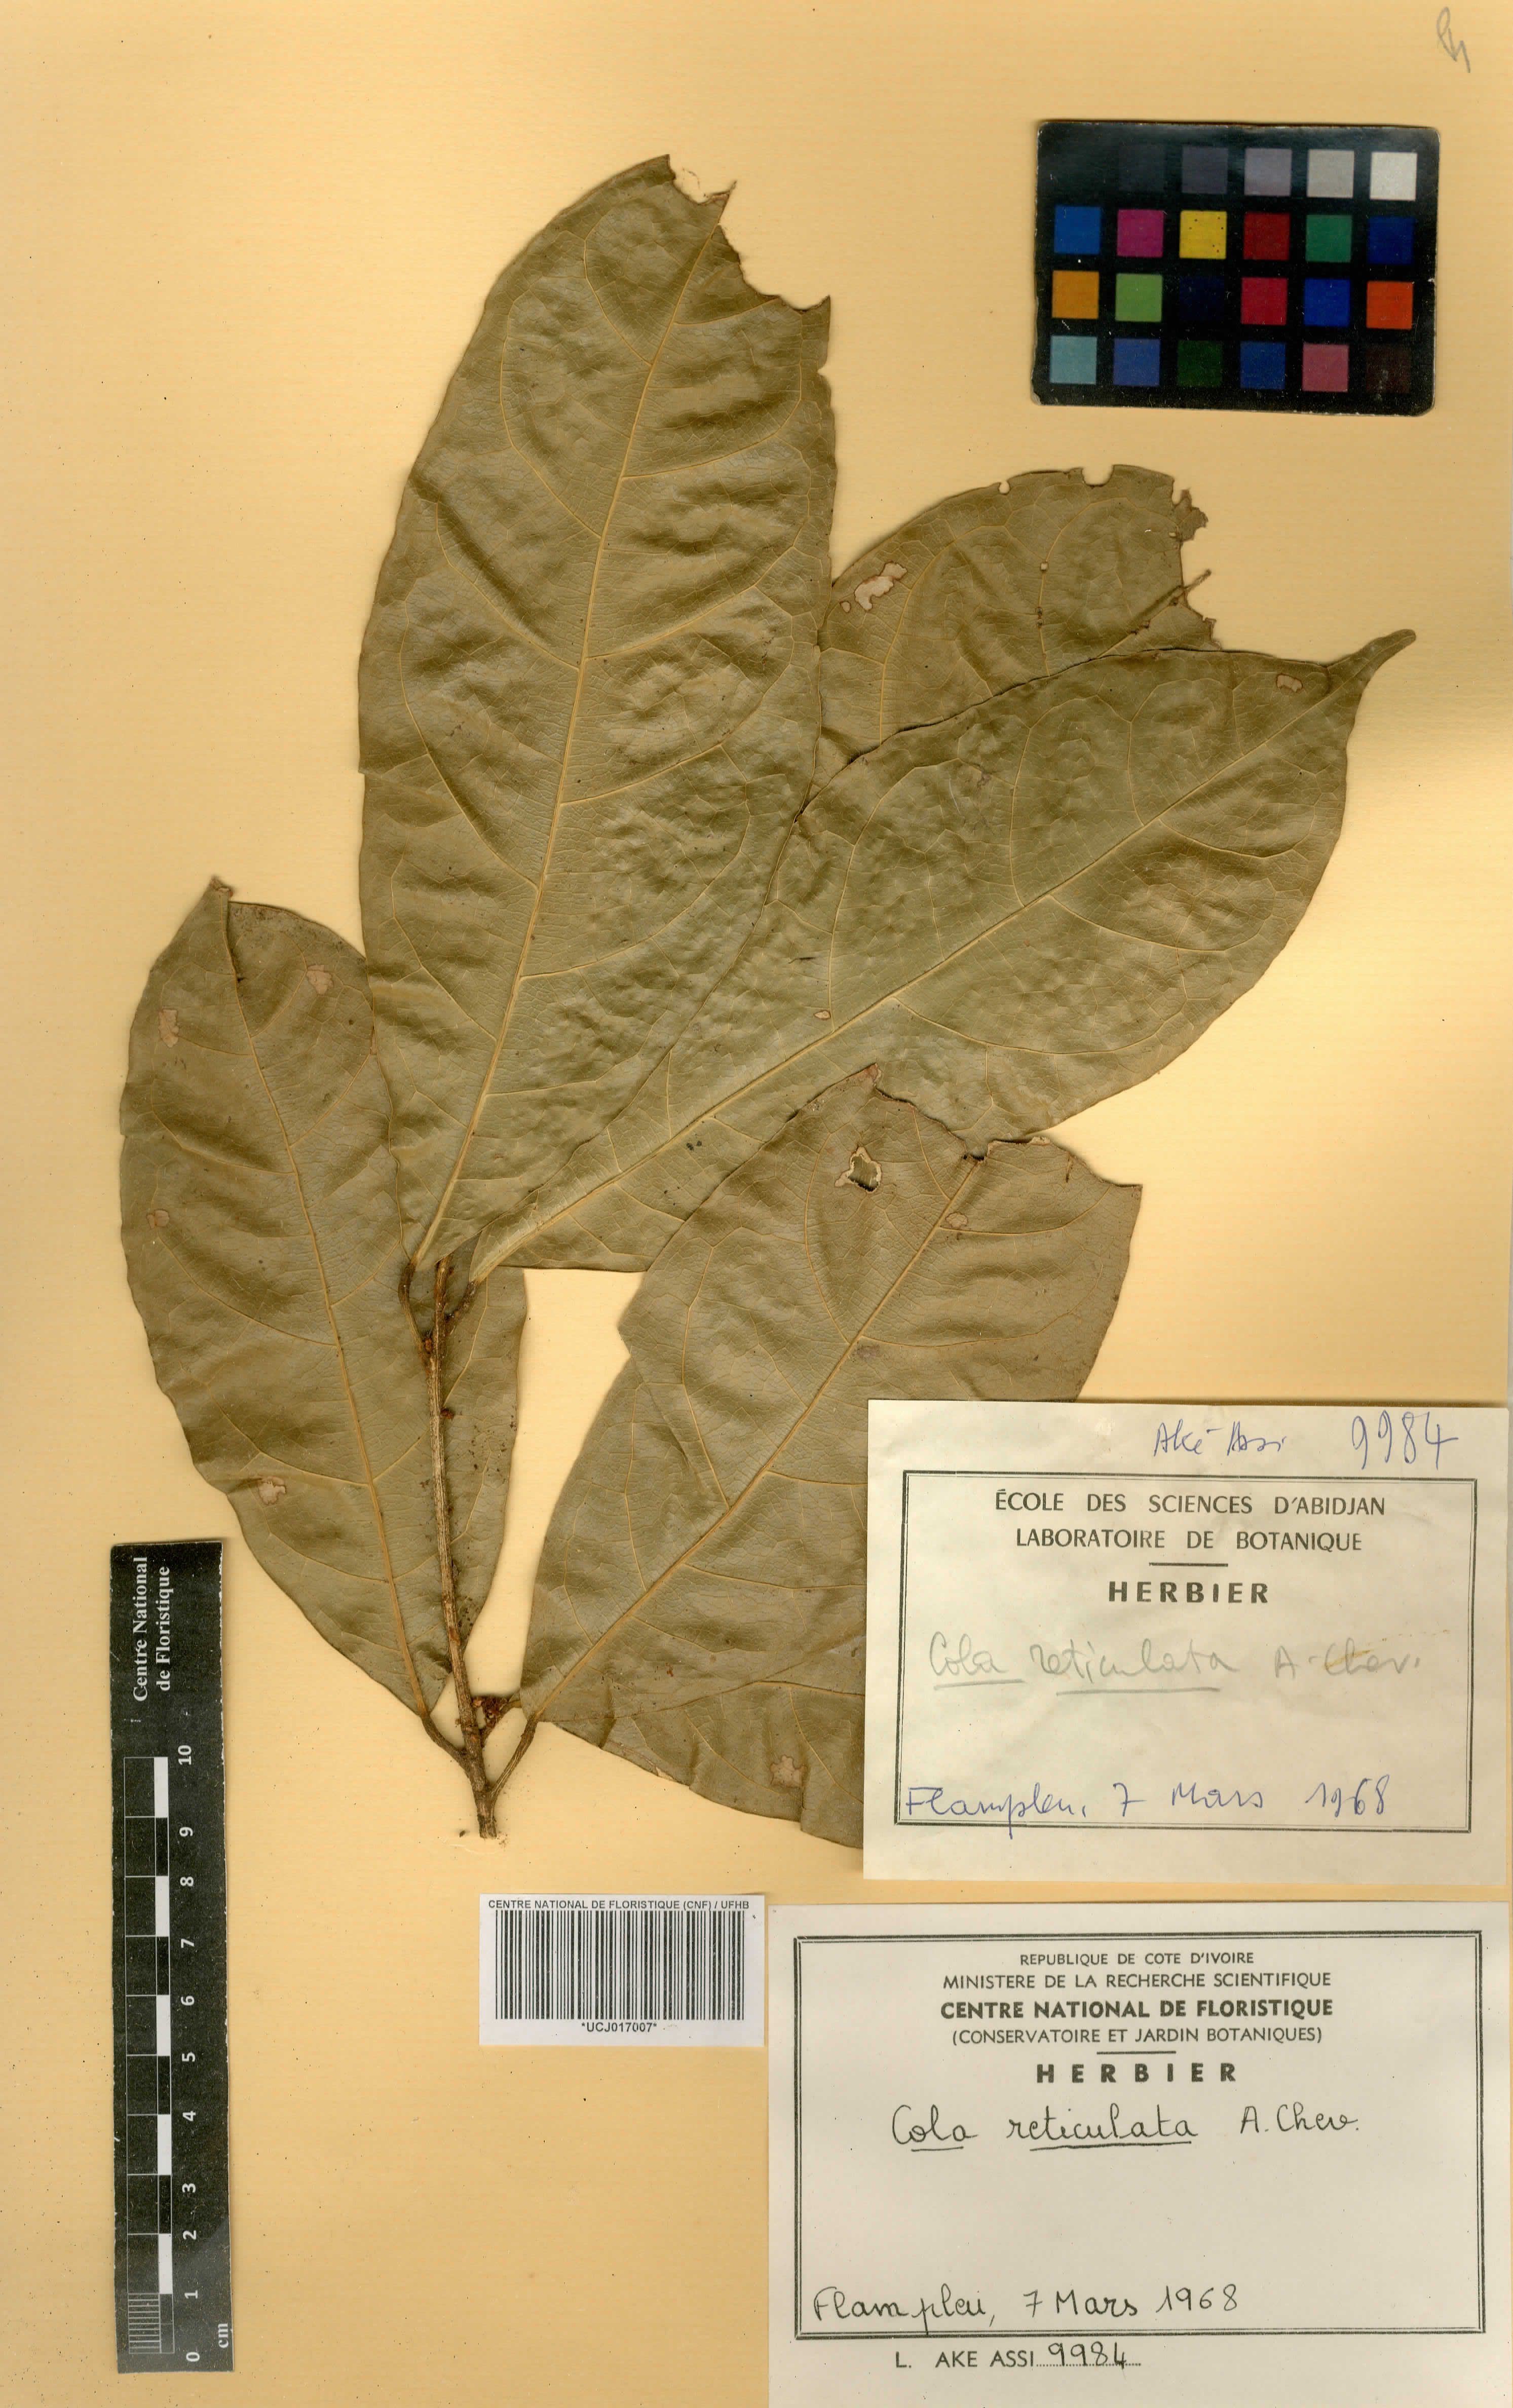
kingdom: Plantae
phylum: Tracheophyta
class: Magnoliopsida
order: Malvales
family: Malvaceae
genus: Cola
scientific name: Cola reticulata
